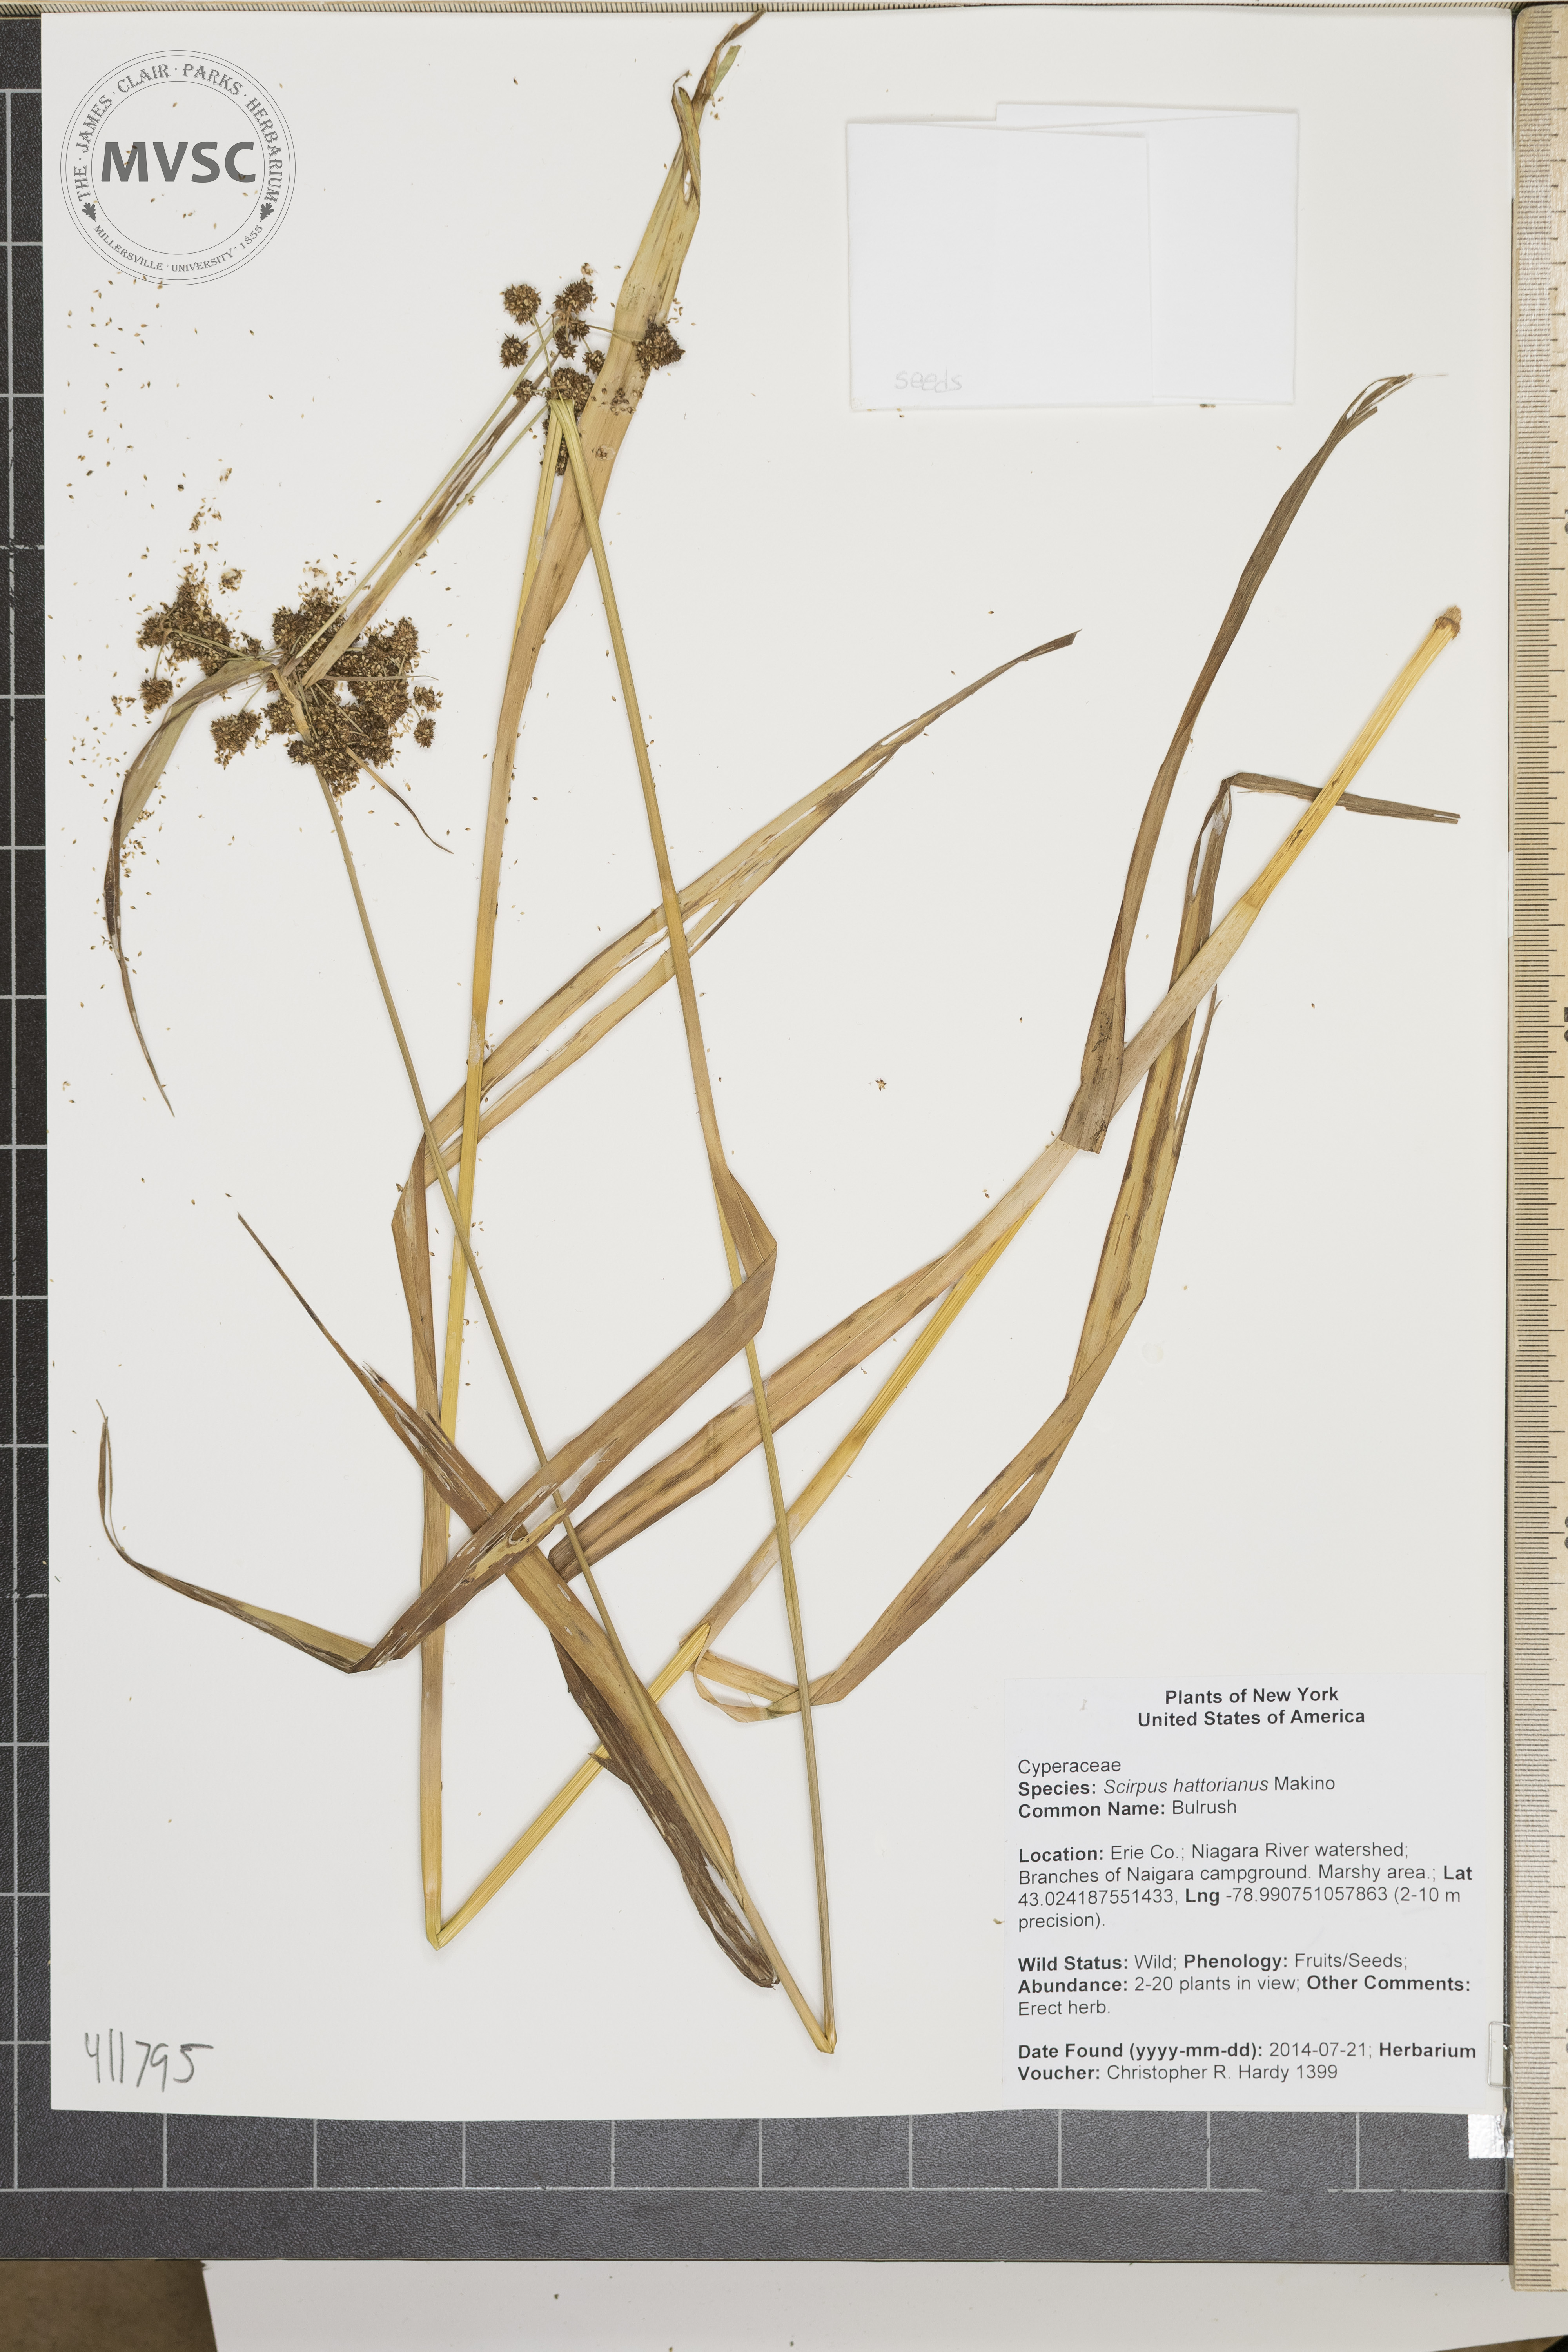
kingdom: Plantae
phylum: Tracheophyta
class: Liliopsida
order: Poales
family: Cyperaceae
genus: Scirpus
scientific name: Scirpus hattorianus
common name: Bulrush
